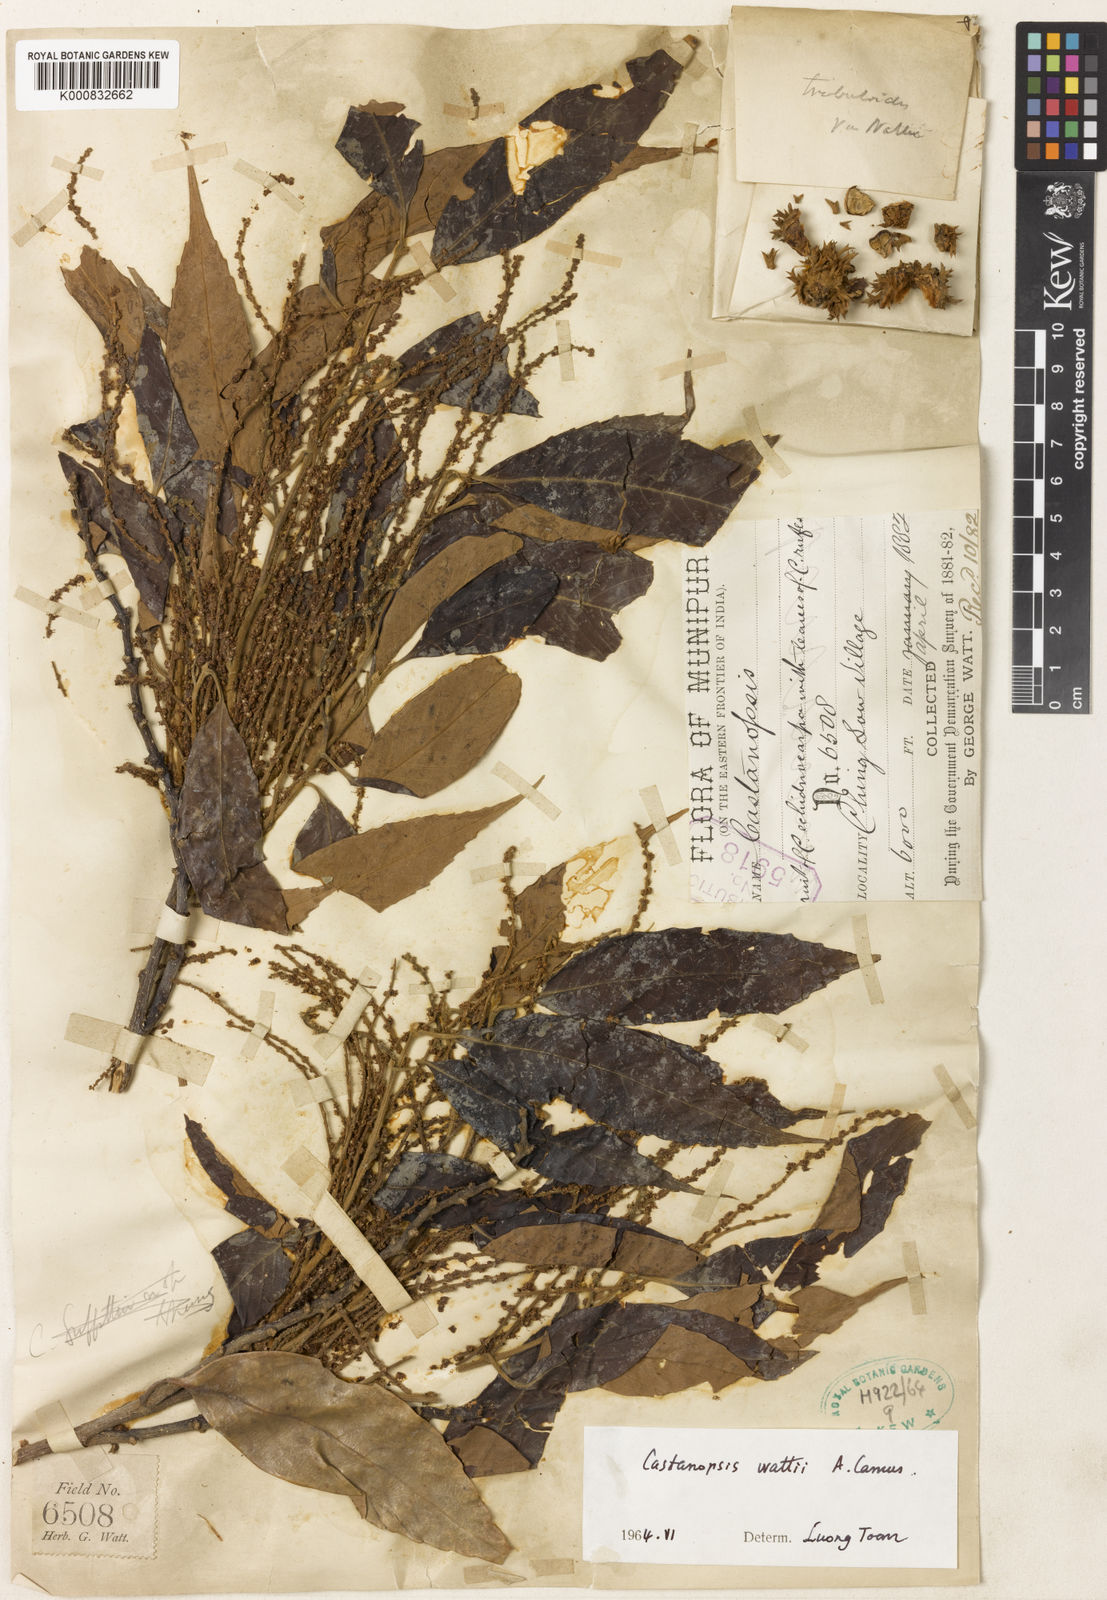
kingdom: Plantae
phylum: Tracheophyta
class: Magnoliopsida
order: Fagales
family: Fagaceae
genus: Castanopsis
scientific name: Castanopsis tribuloides
